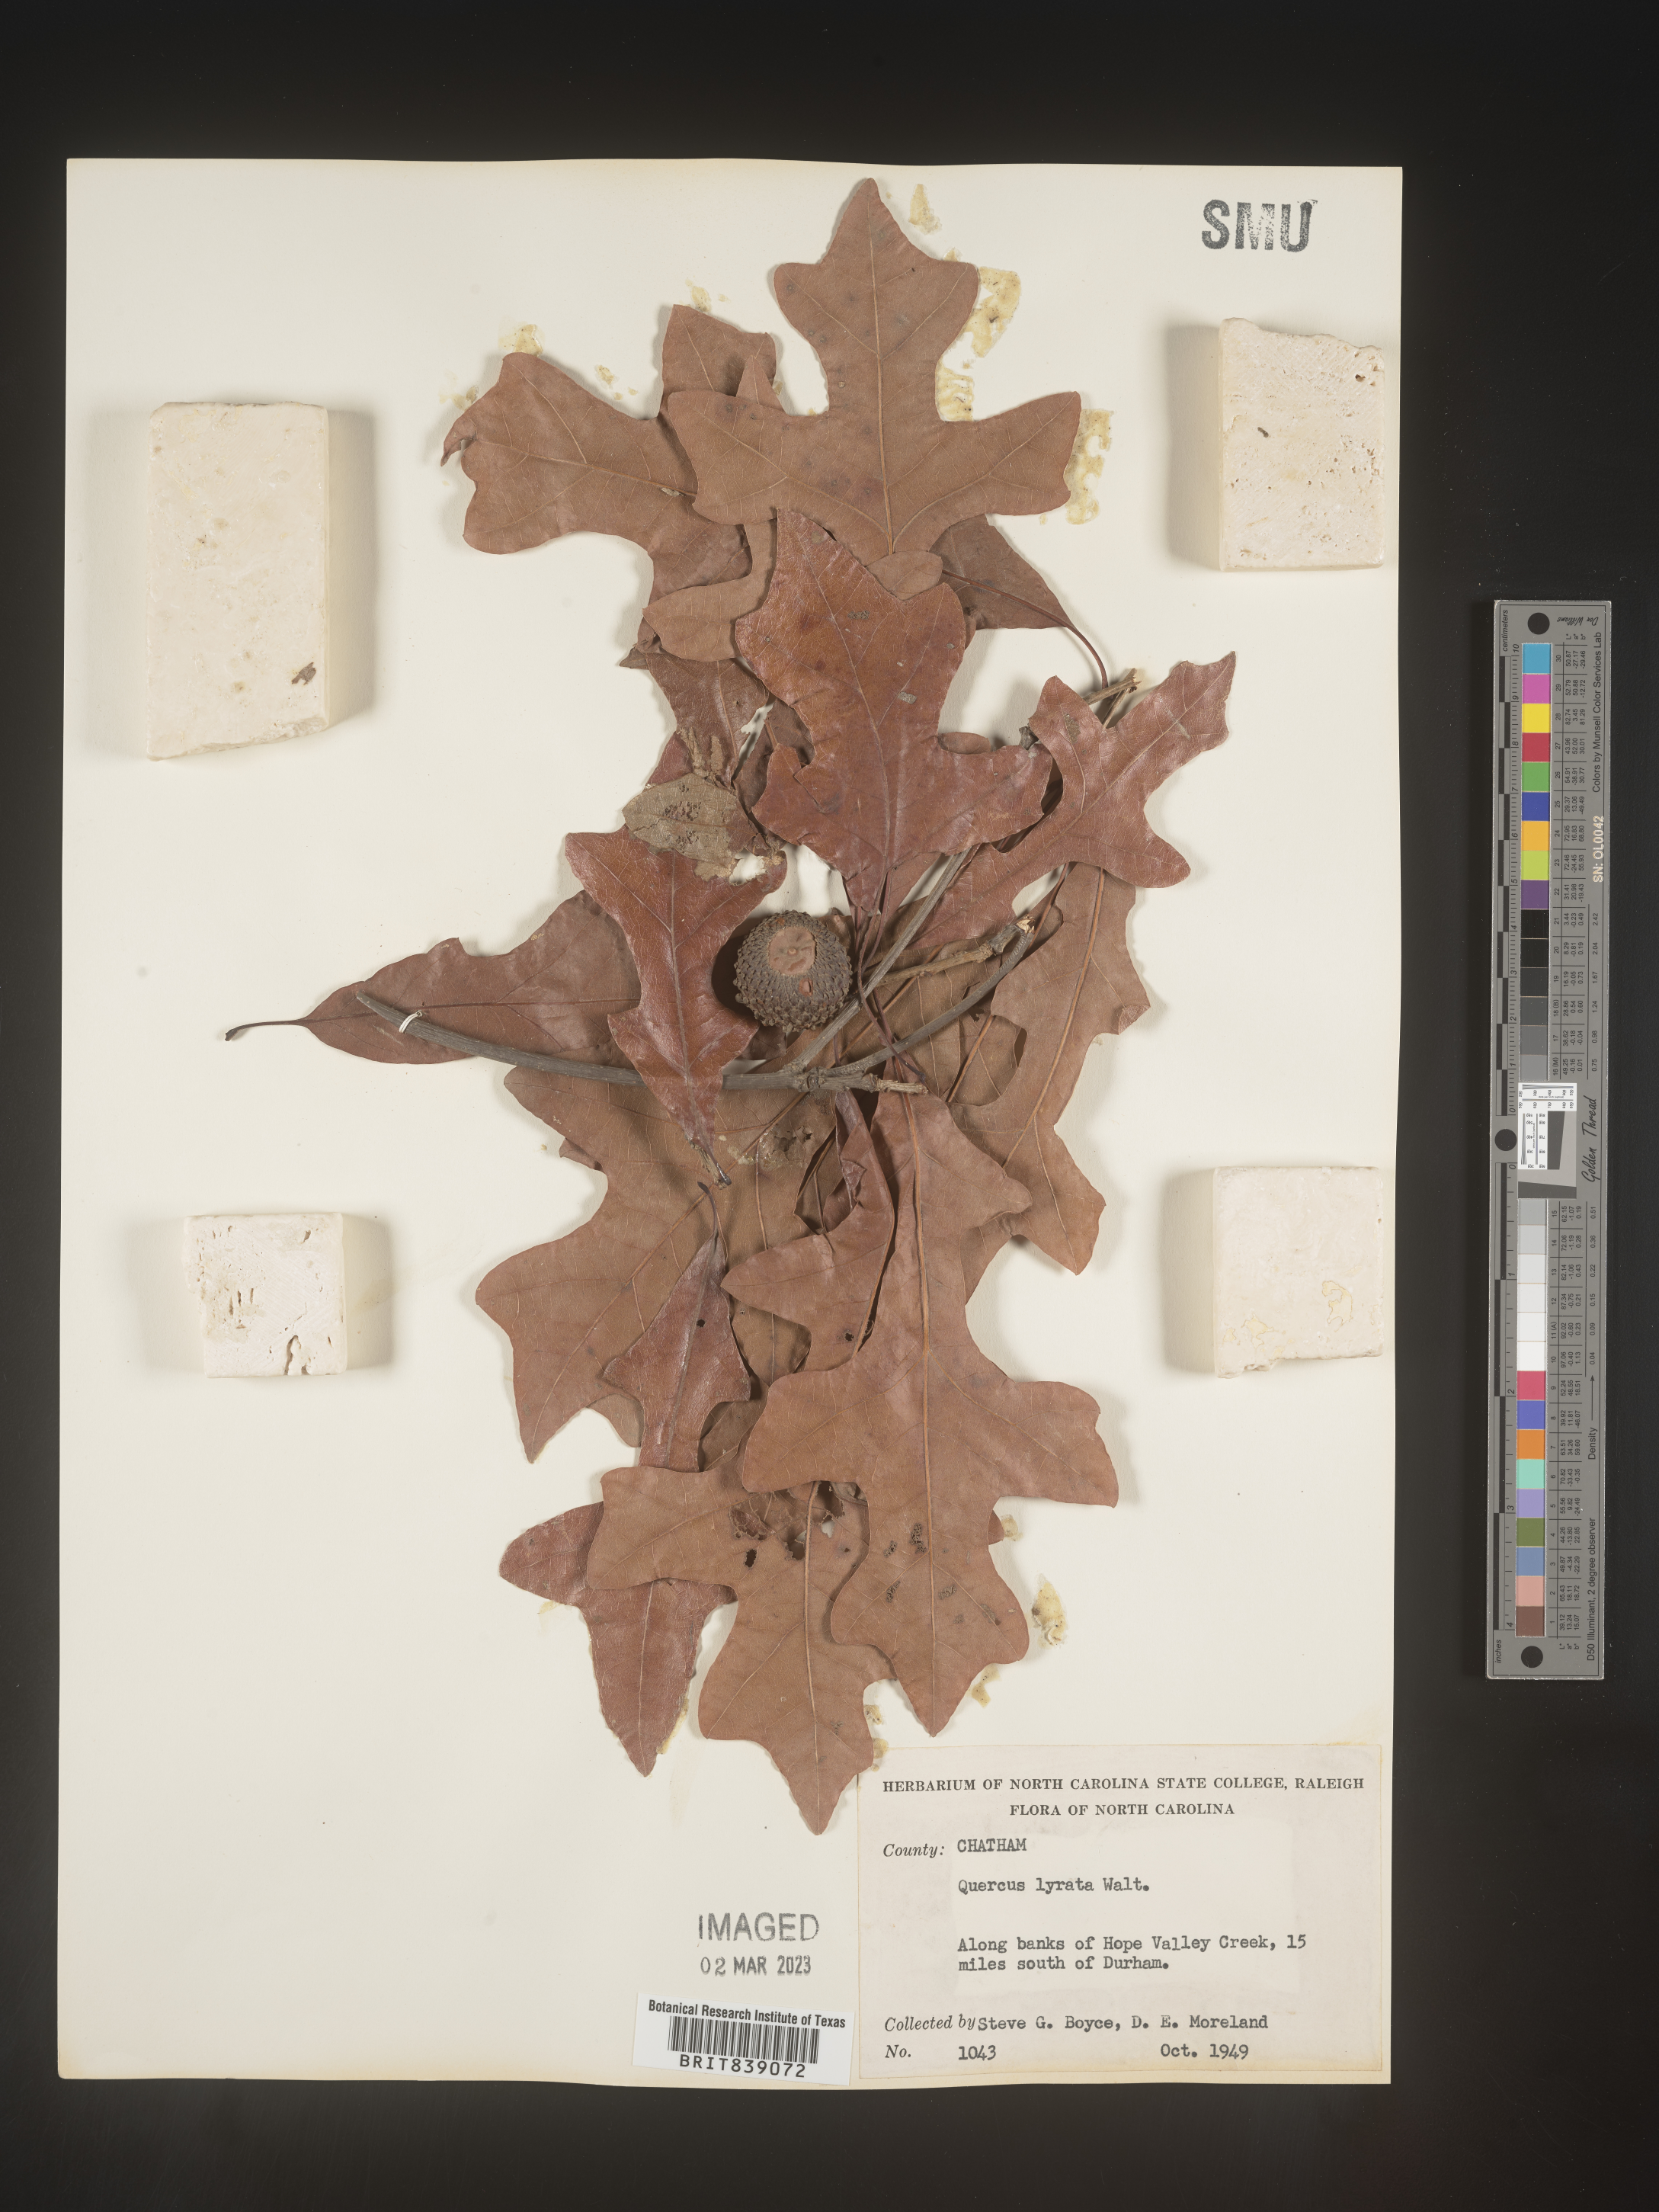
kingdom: Plantae
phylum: Tracheophyta
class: Magnoliopsida
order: Fagales
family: Fagaceae
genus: Quercus
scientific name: Quercus lyrata
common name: Overcup oak
